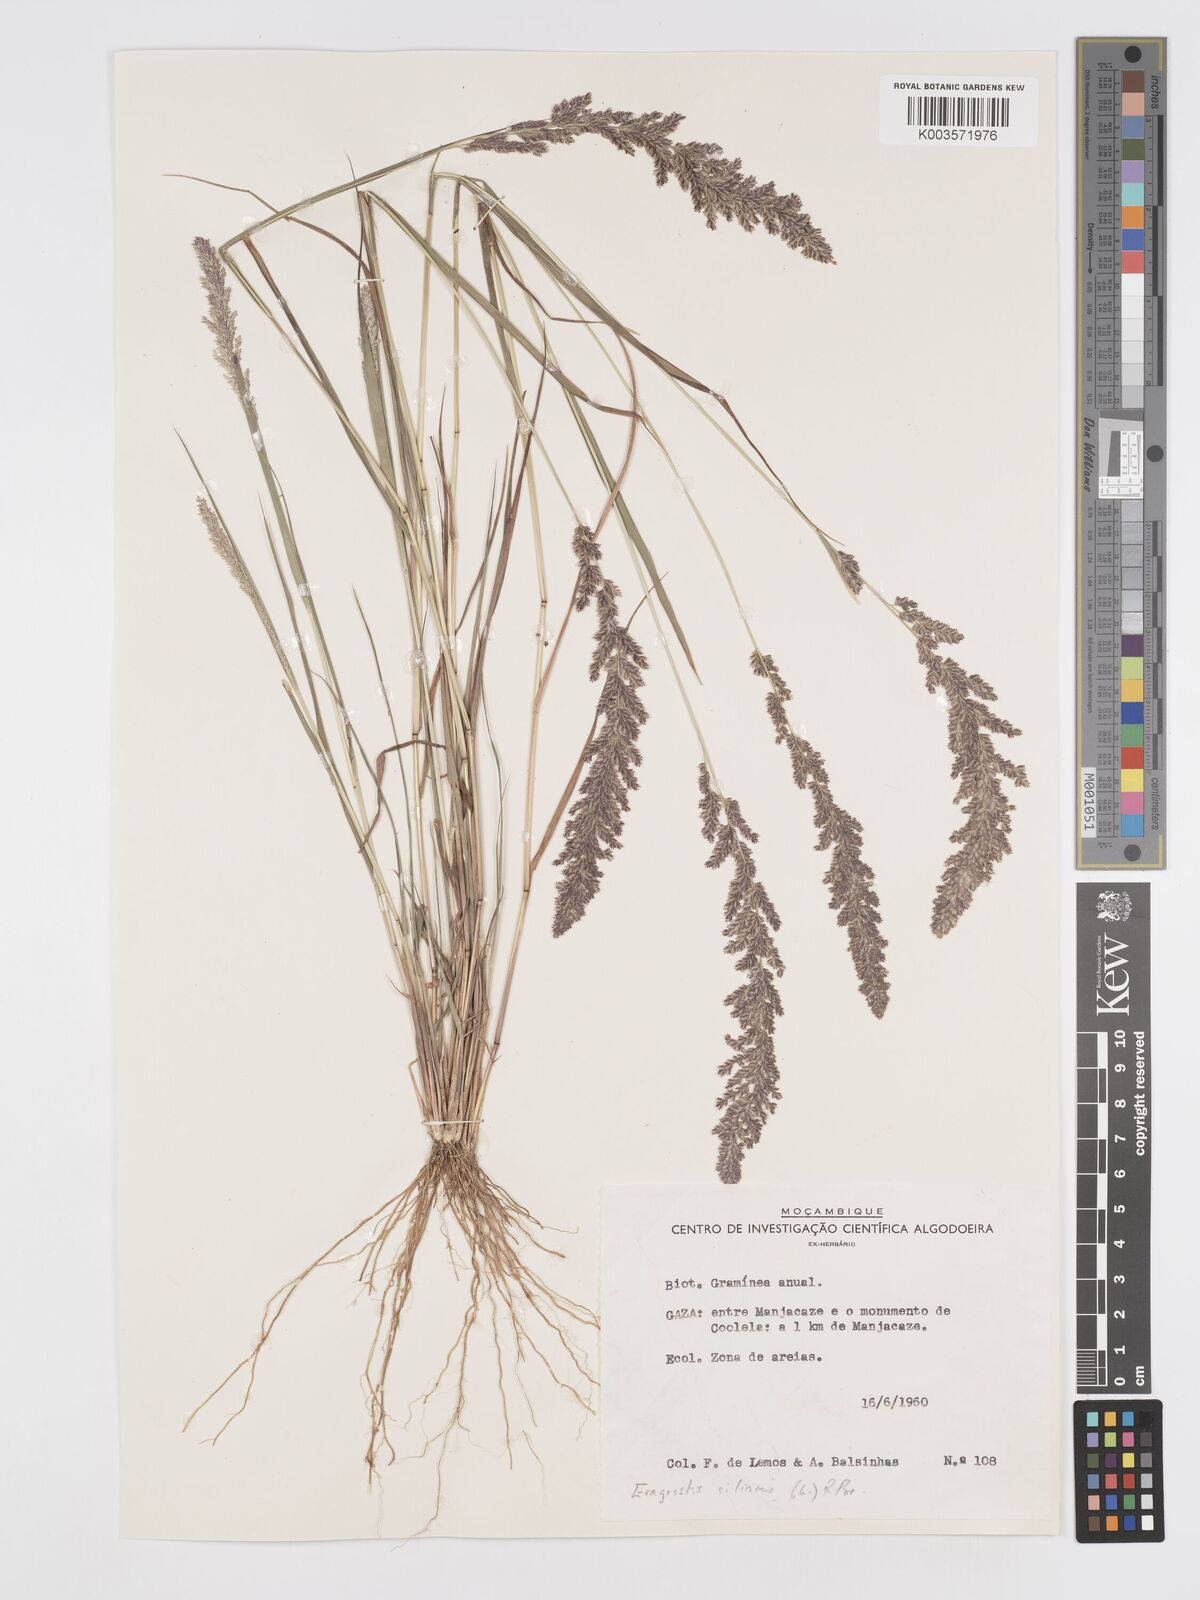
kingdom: Plantae
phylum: Tracheophyta
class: Liliopsida
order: Poales
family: Poaceae
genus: Eragrostis
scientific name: Eragrostis ciliaris
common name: Gophertail lovegrass
